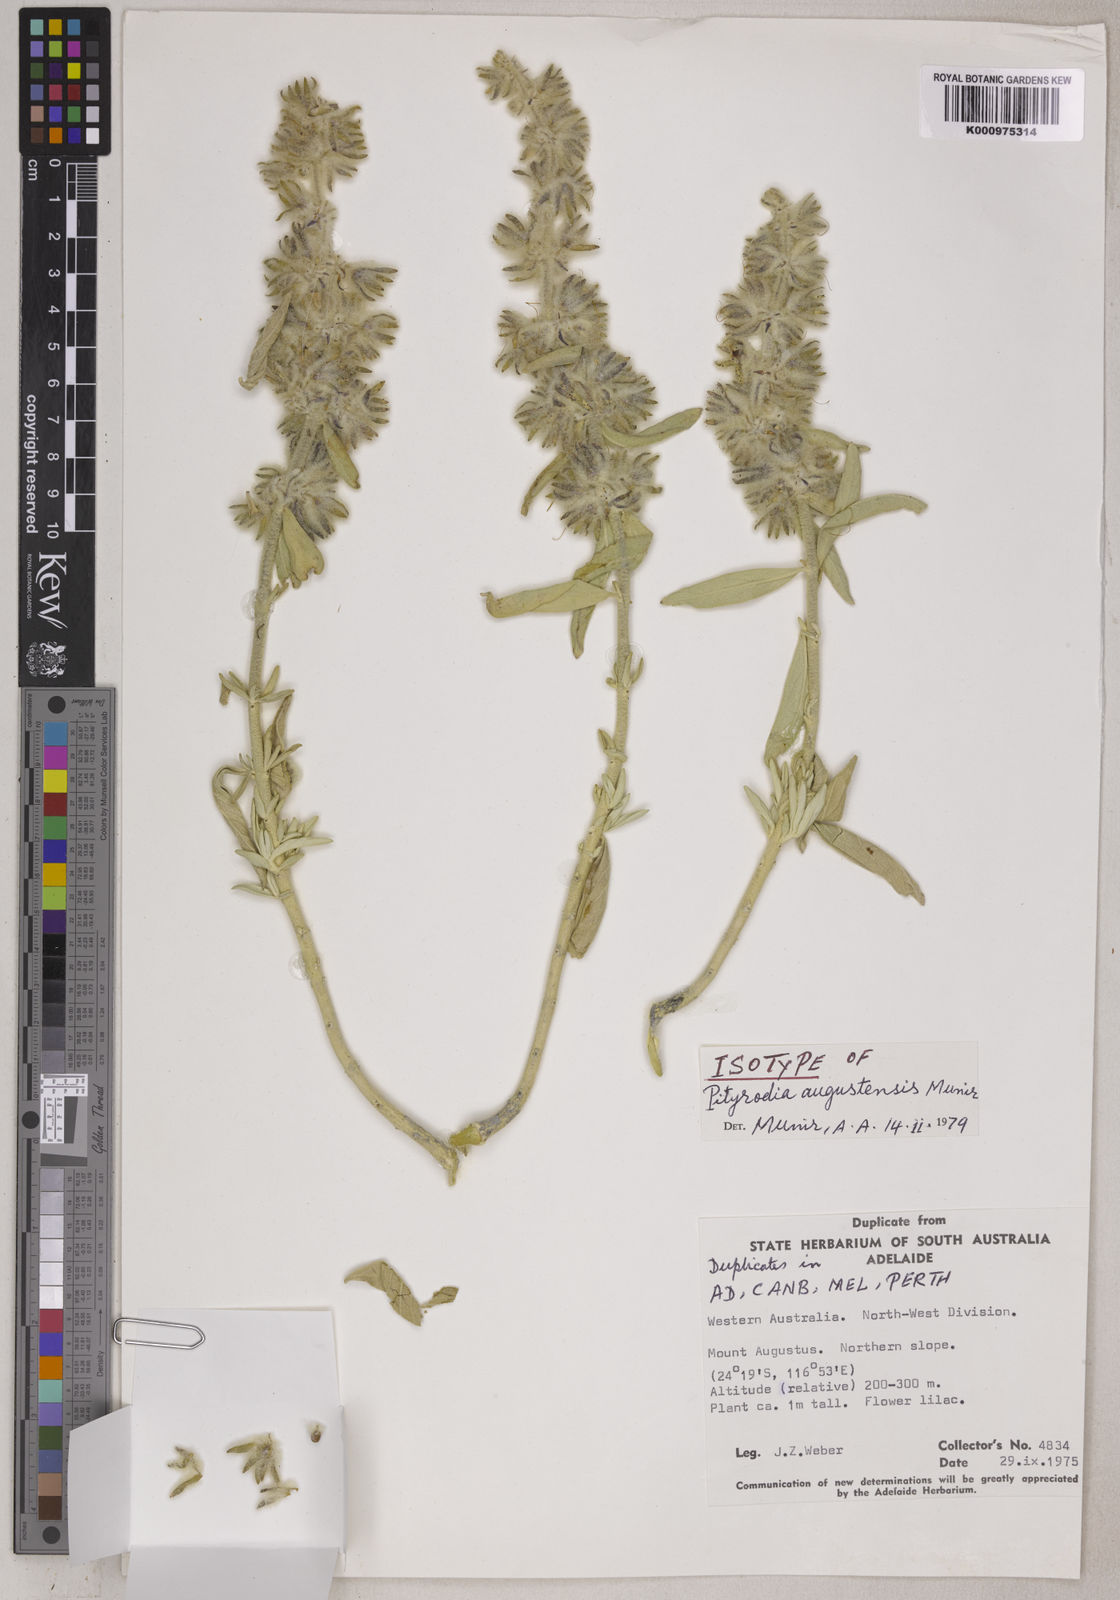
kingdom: Plantae
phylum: Tracheophyta
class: Magnoliopsida
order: Lamiales
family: Lamiaceae
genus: Pityrodia
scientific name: Pityrodia augustensis
